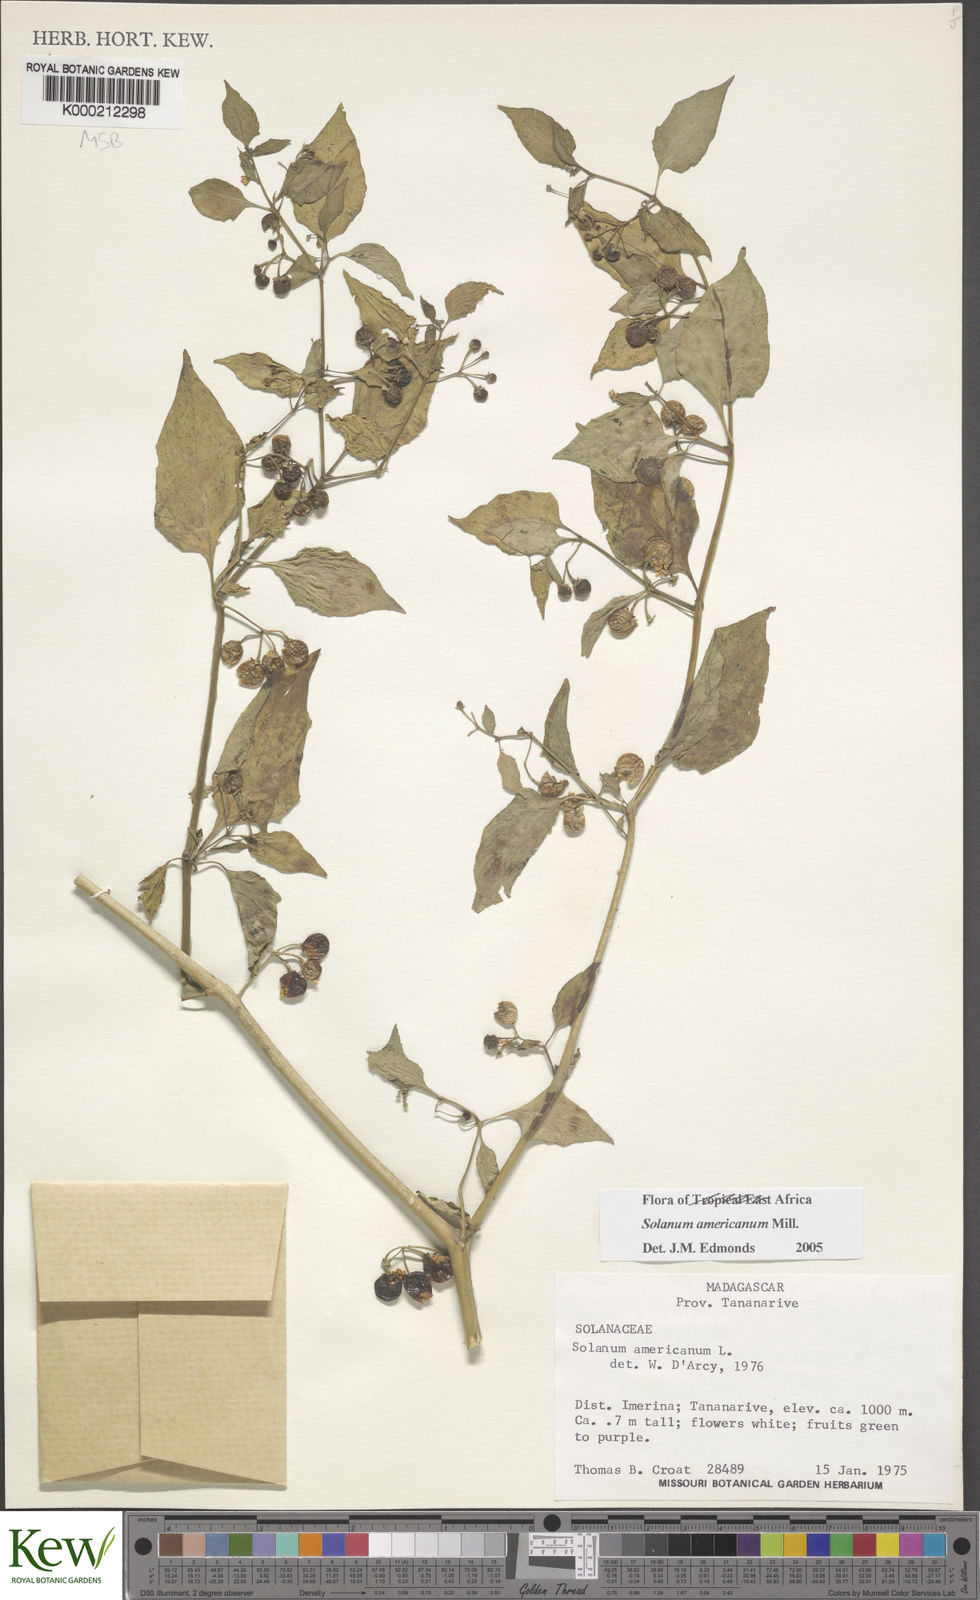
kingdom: Plantae
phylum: Tracheophyta
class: Magnoliopsida
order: Solanales
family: Solanaceae
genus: Solanum
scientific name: Solanum americanum
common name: American black nightshade
